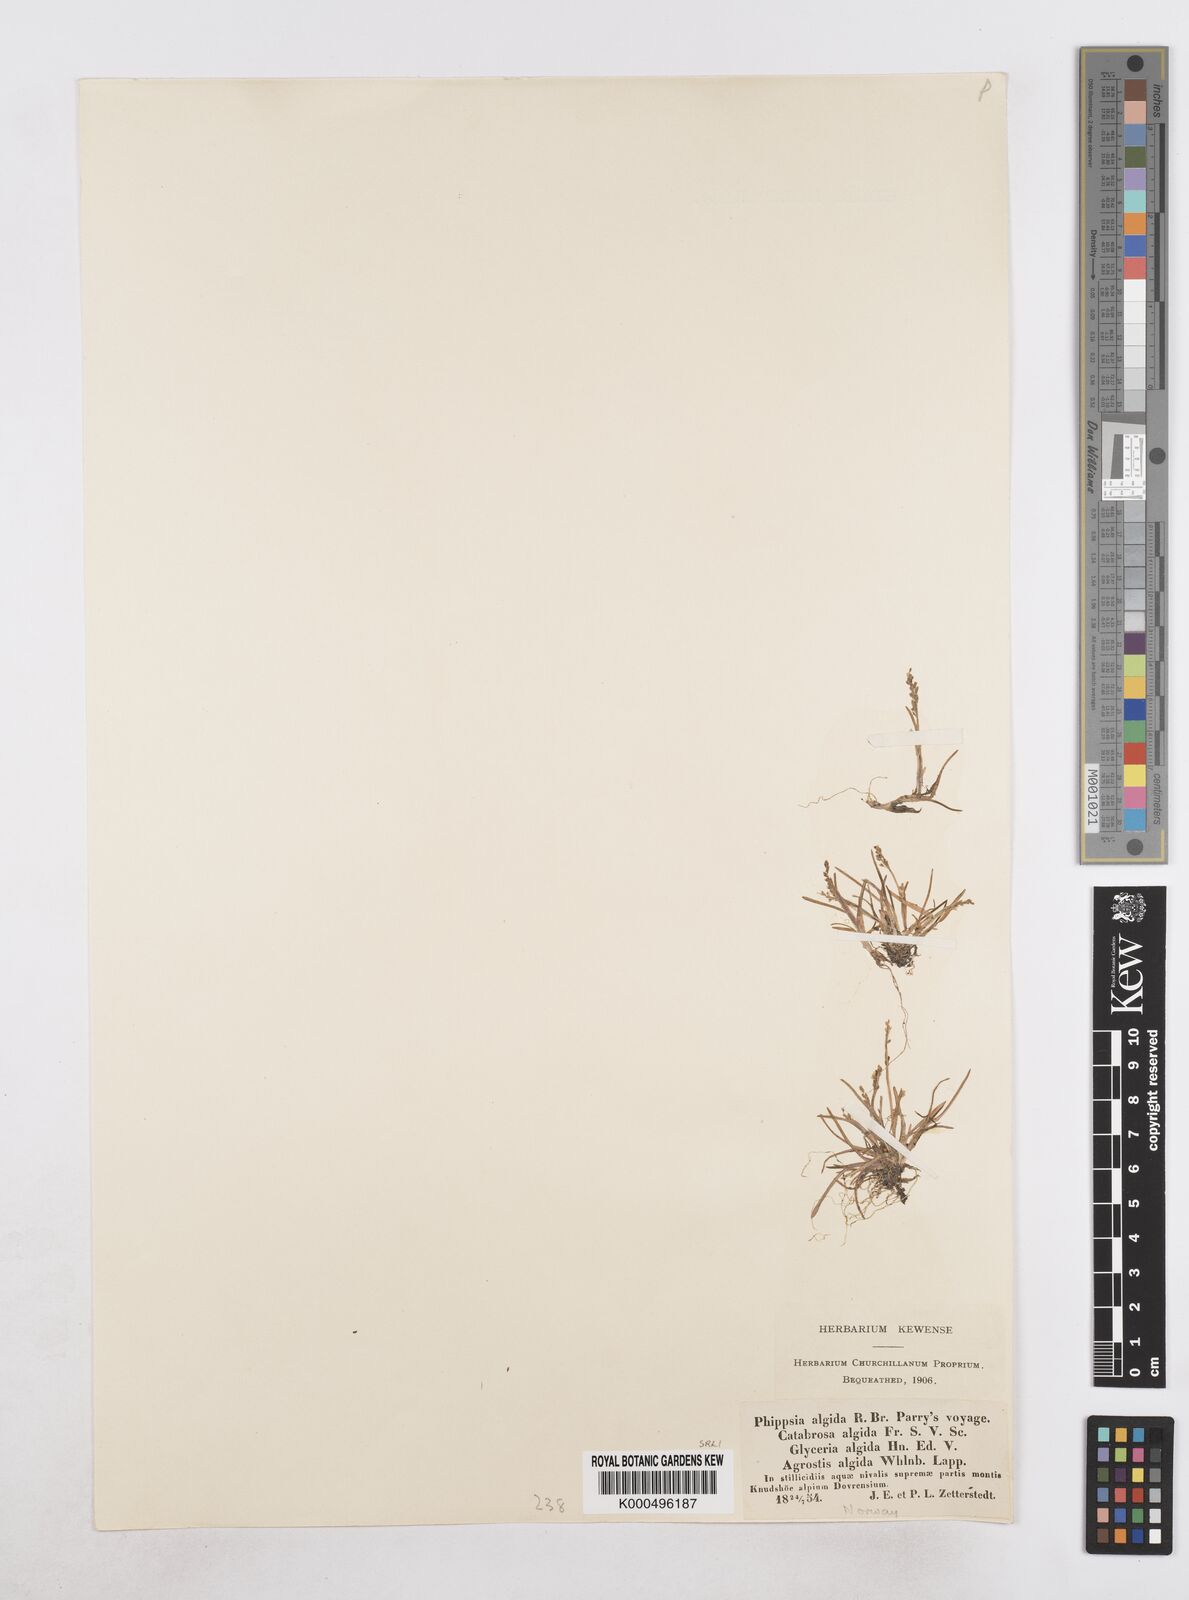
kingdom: Plantae
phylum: Tracheophyta
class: Liliopsida
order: Poales
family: Poaceae
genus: Phippsia
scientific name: Phippsia algida
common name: Ice grass
